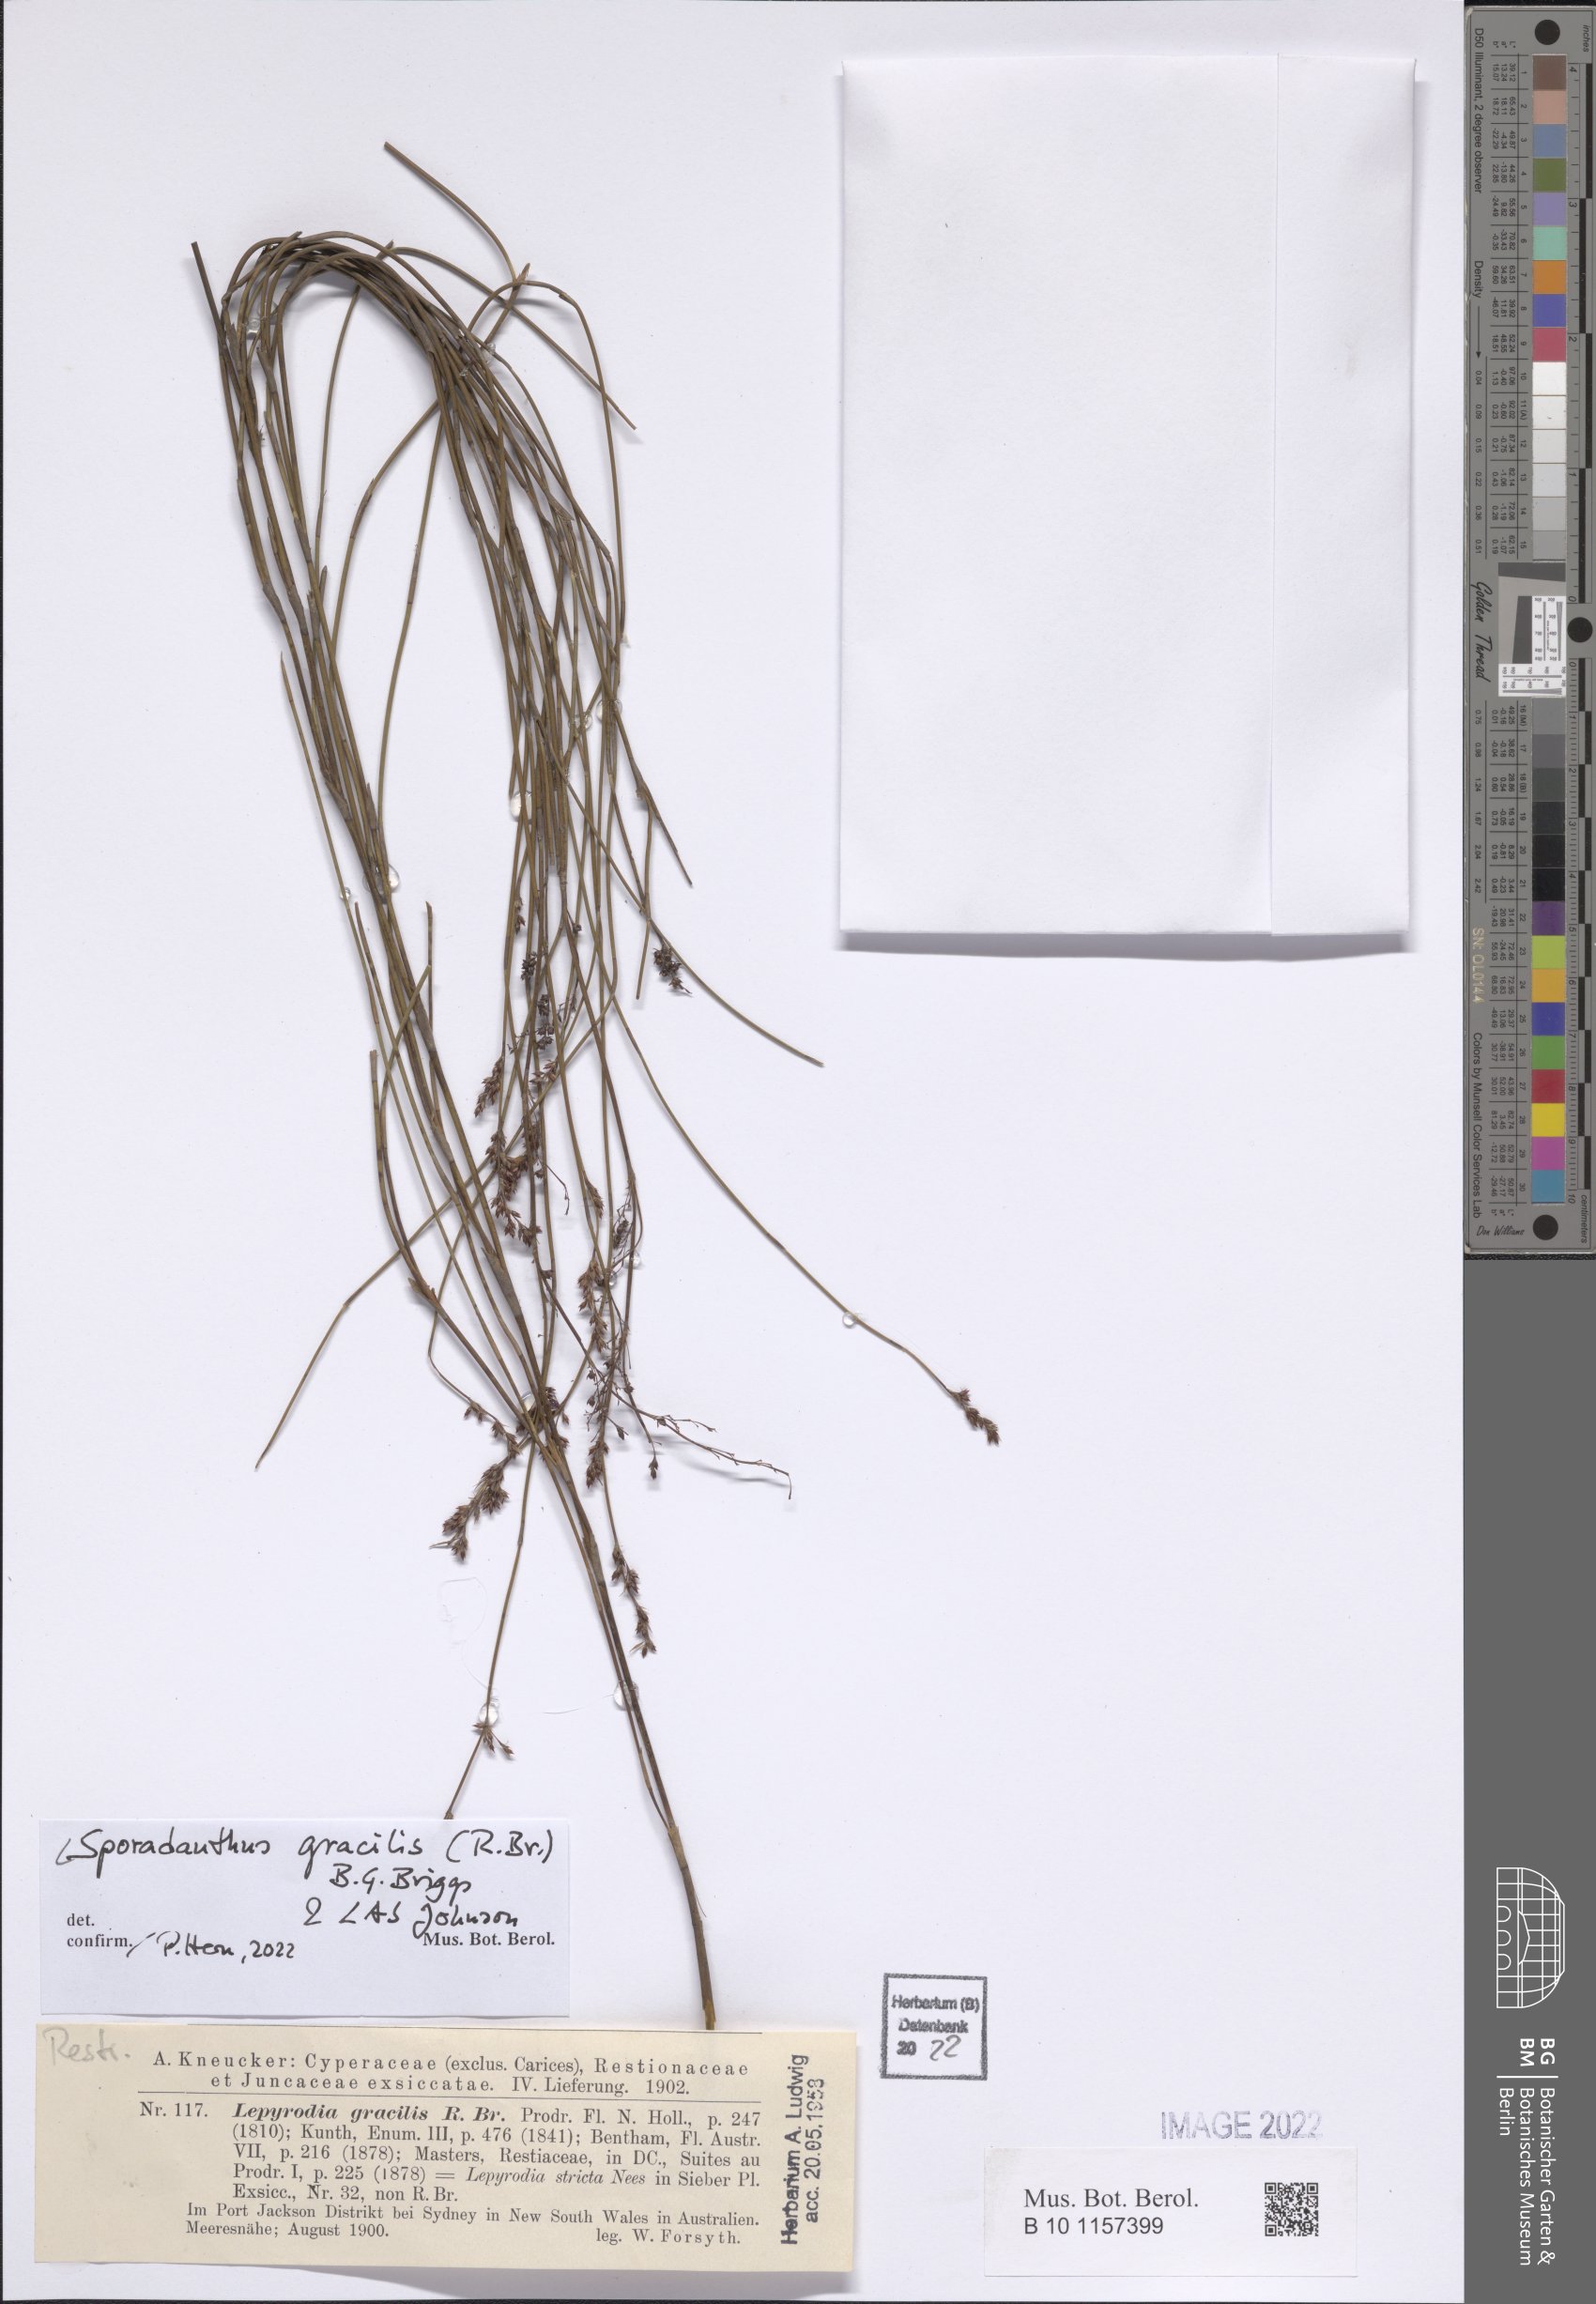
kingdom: Plantae
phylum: Tracheophyta
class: Liliopsida
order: Poales
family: Restionaceae
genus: Sporadanthus
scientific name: Sporadanthus gracilis
